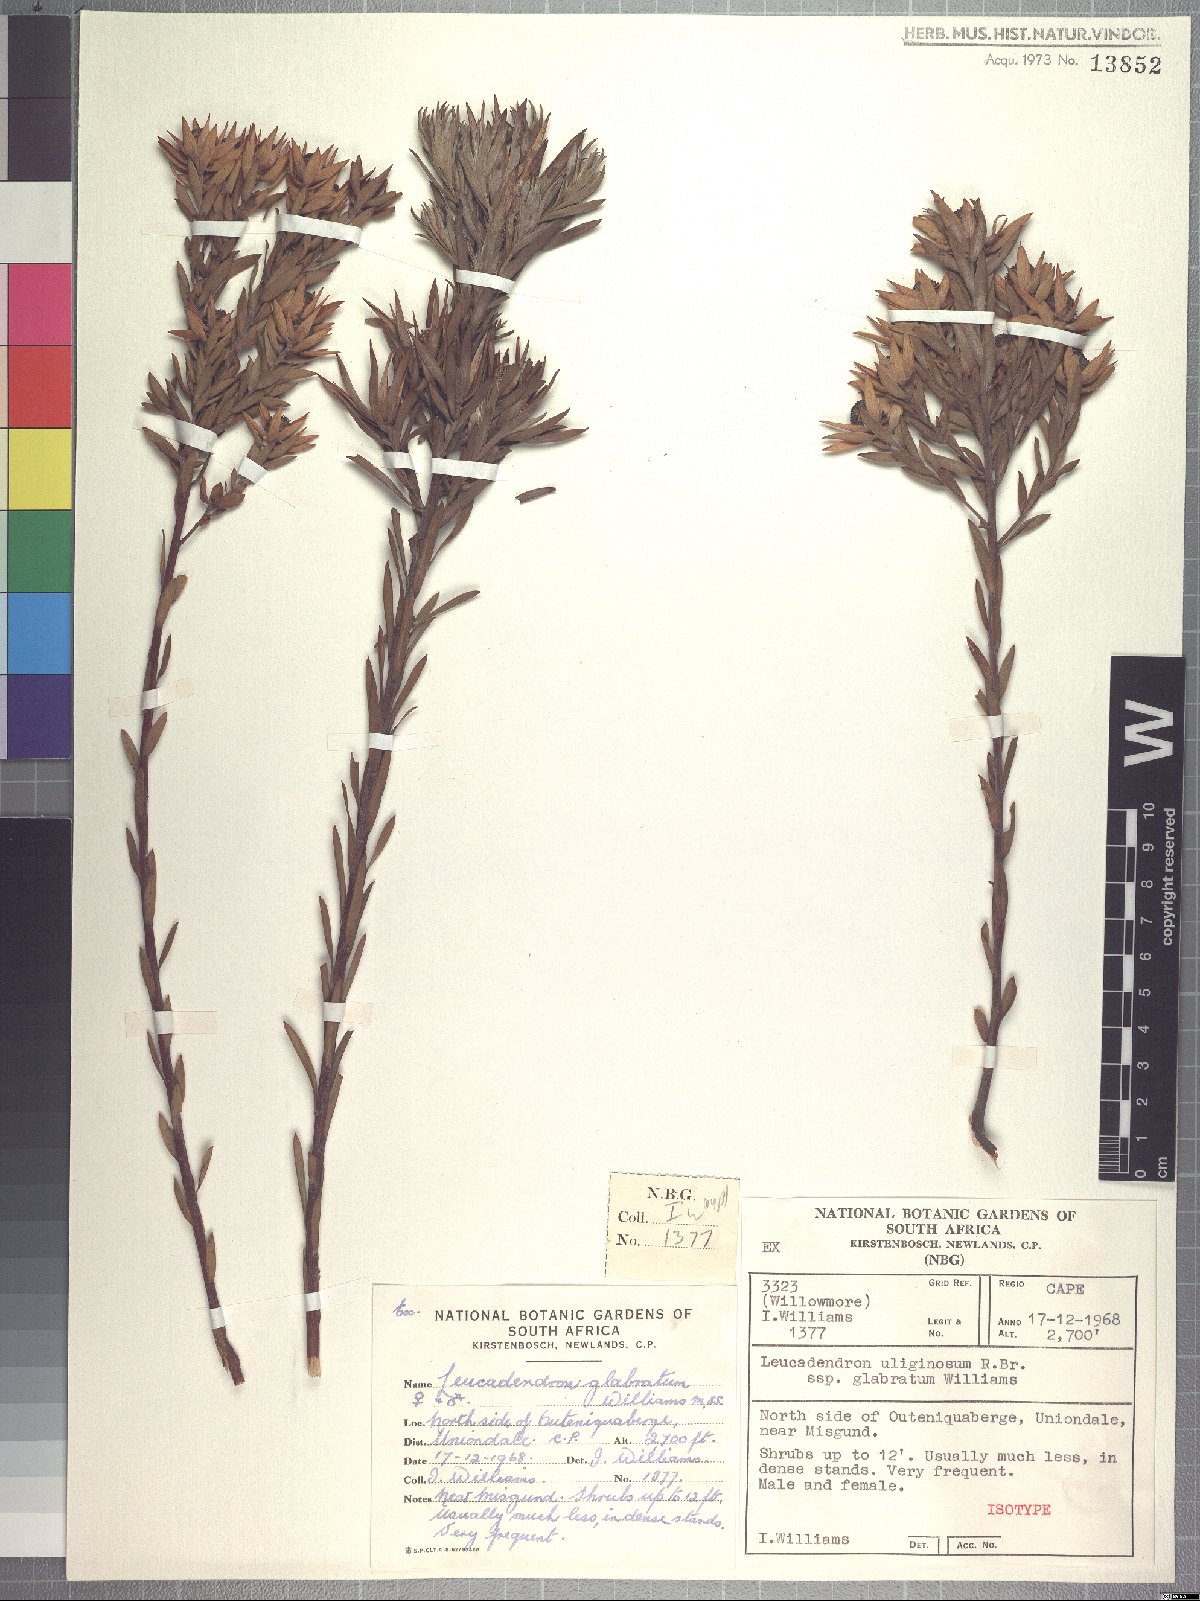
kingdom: Plantae
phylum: Tracheophyta
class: Magnoliopsida
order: Proteales
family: Proteaceae
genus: Leucadendron
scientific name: Leucadendron uliginosum
